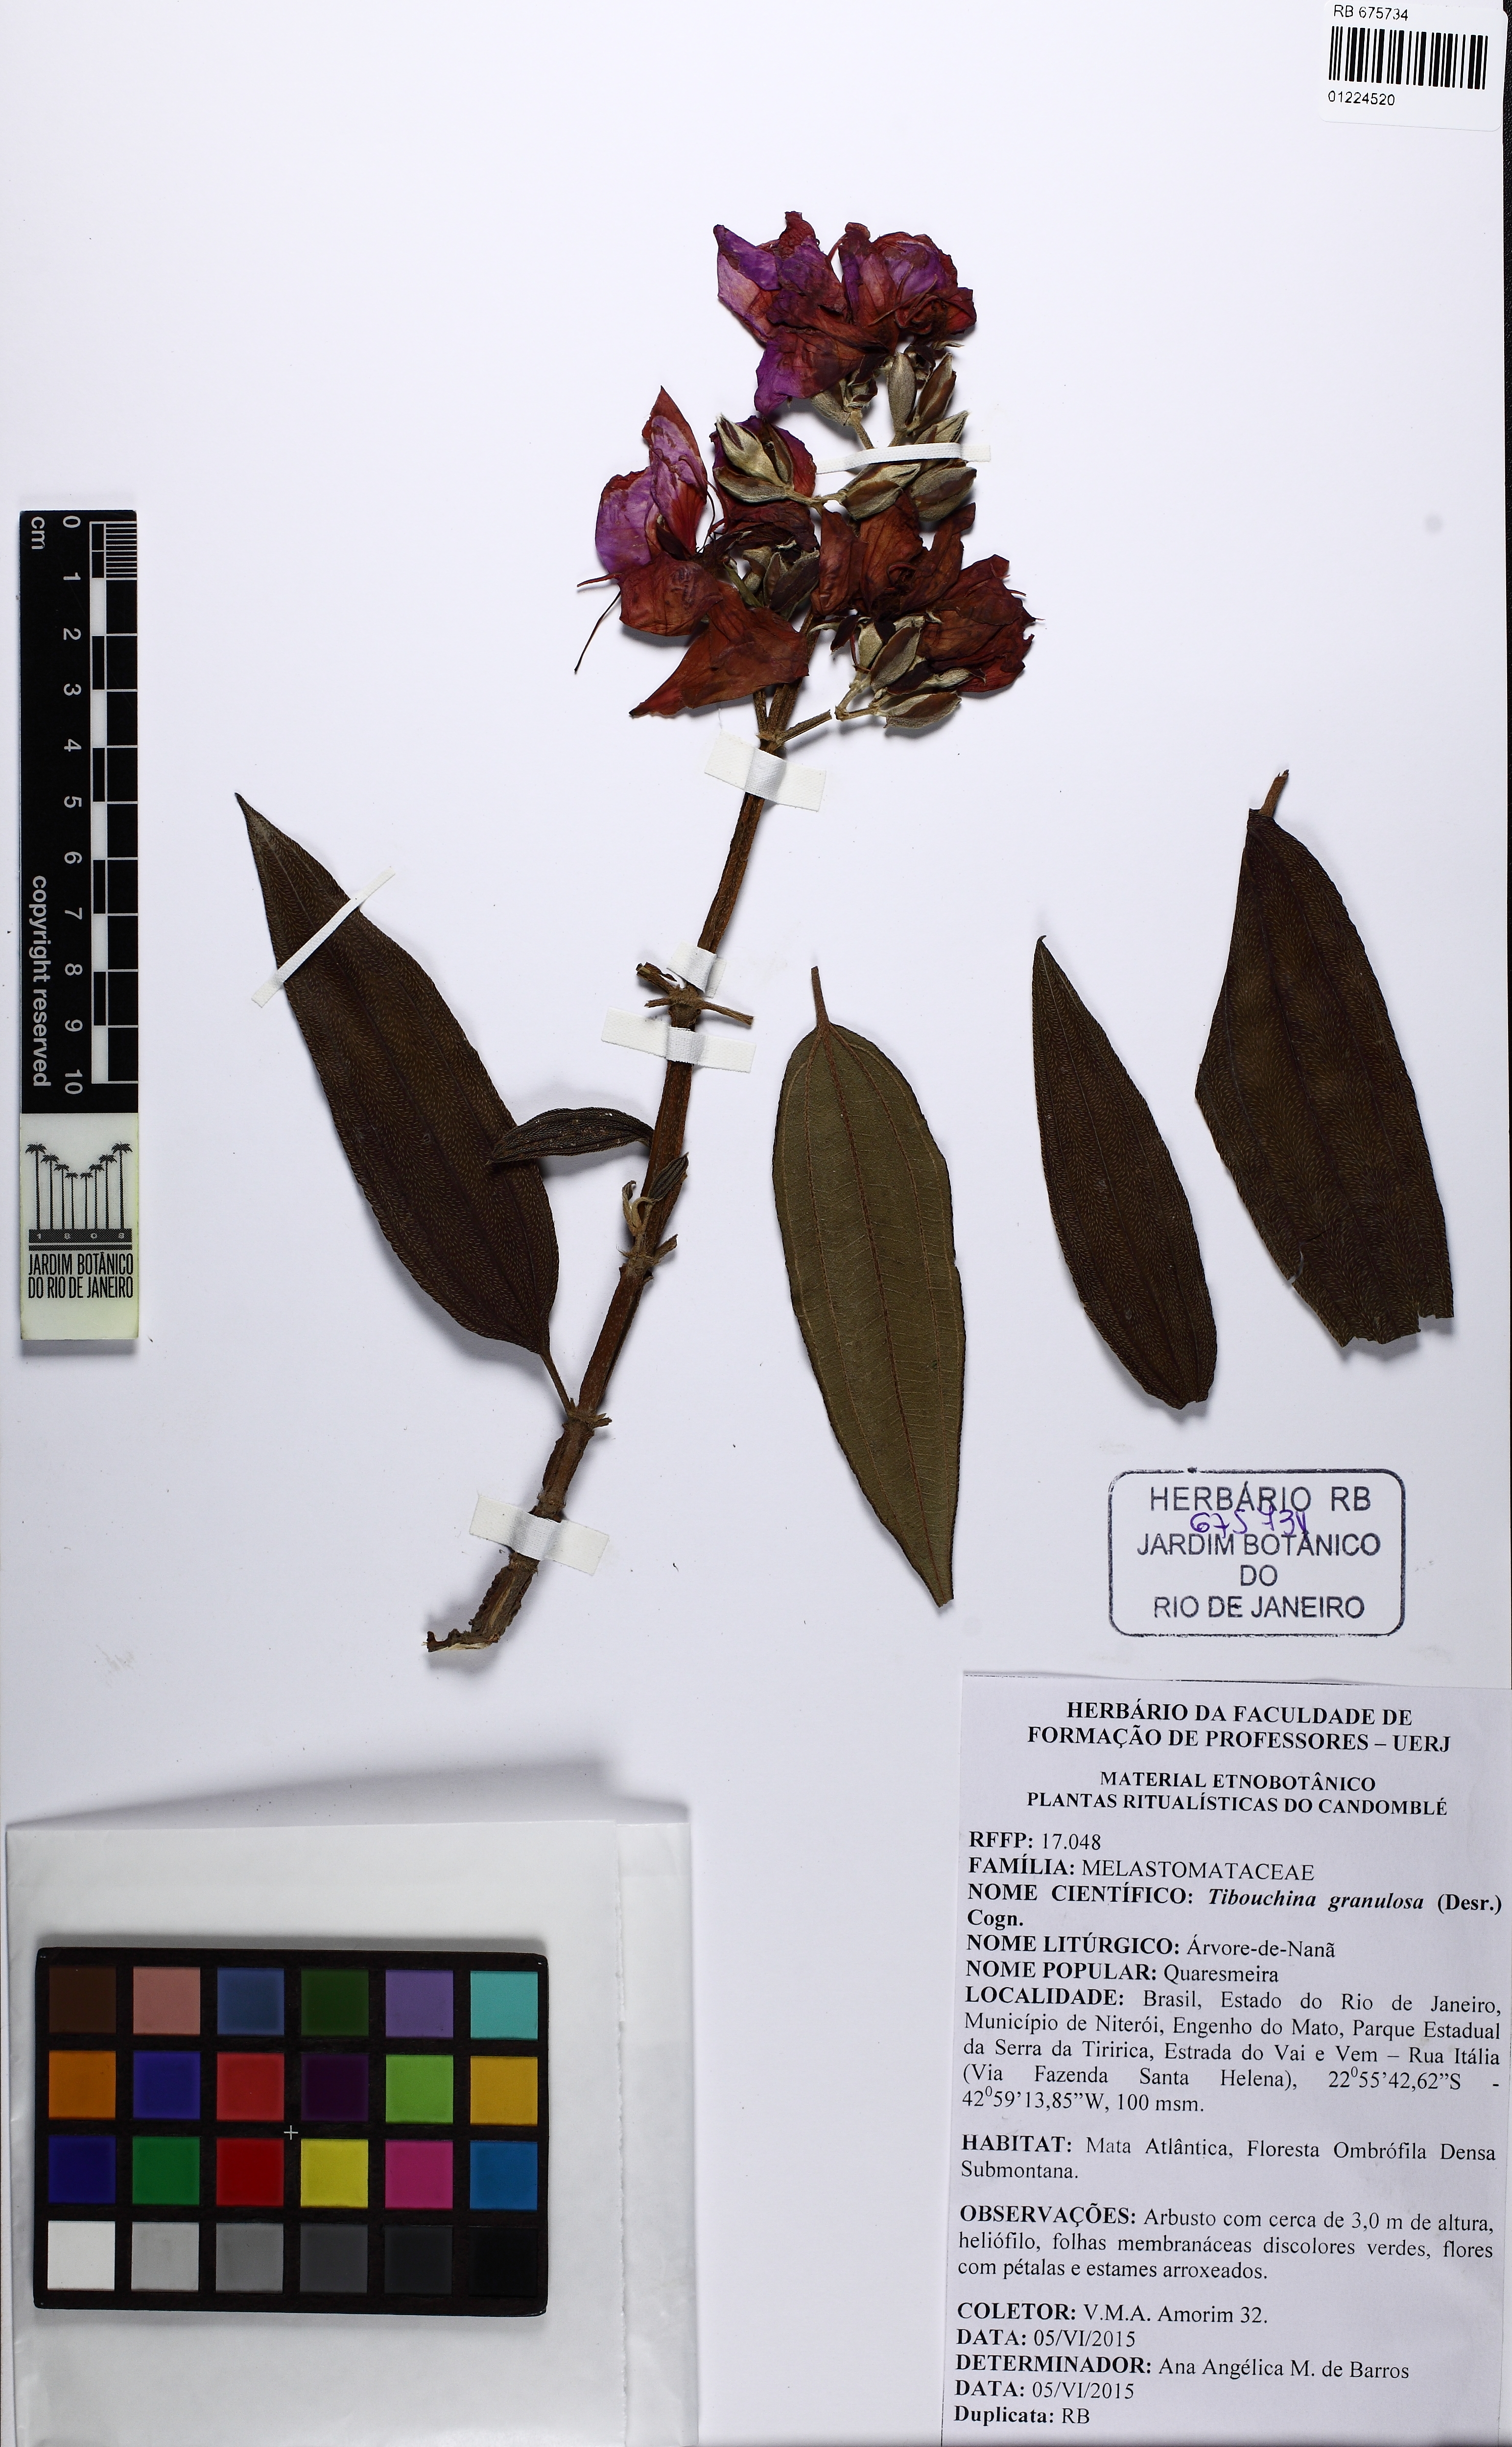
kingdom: Plantae
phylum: Tracheophyta
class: Magnoliopsida
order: Myrtales
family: Melastomataceae
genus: Pleroma
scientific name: Pleroma granulosum
